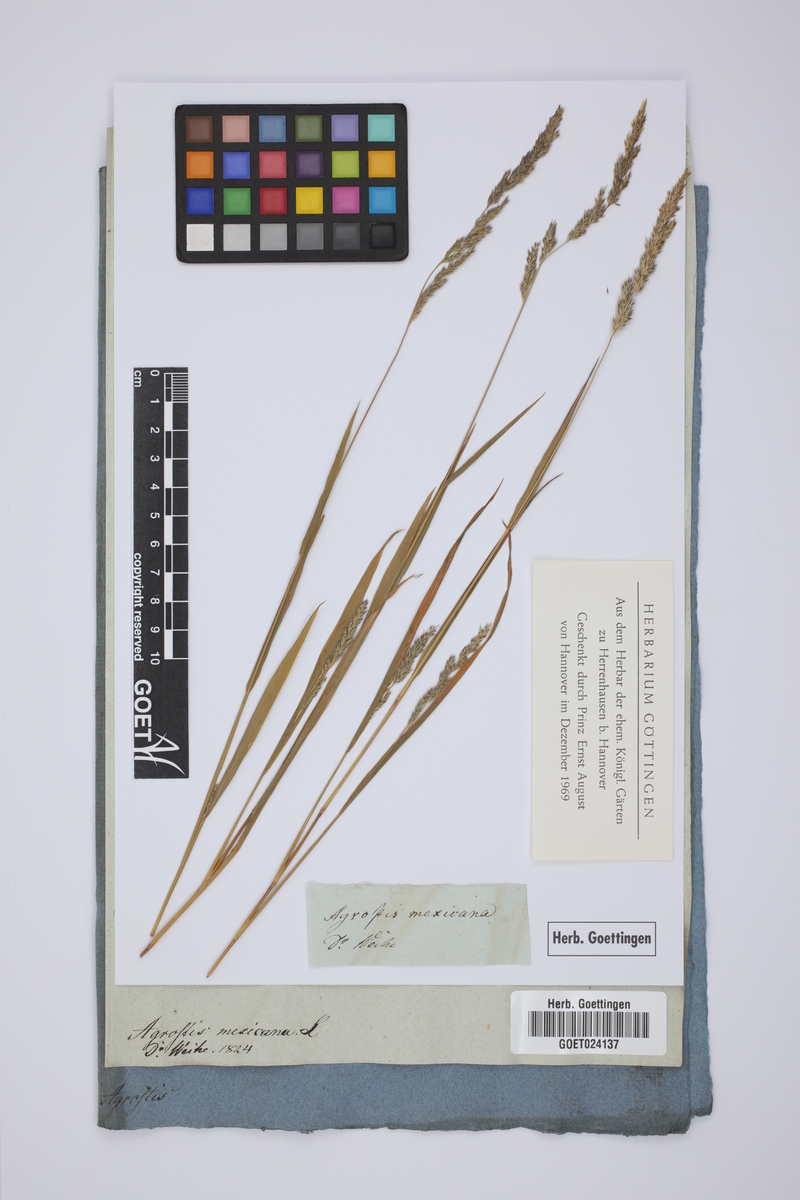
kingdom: Plantae
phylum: Tracheophyta
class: Liliopsida
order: Poales
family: Poaceae
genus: Muhlenbergia
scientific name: Muhlenbergia mexicana
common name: Mexican muhly
